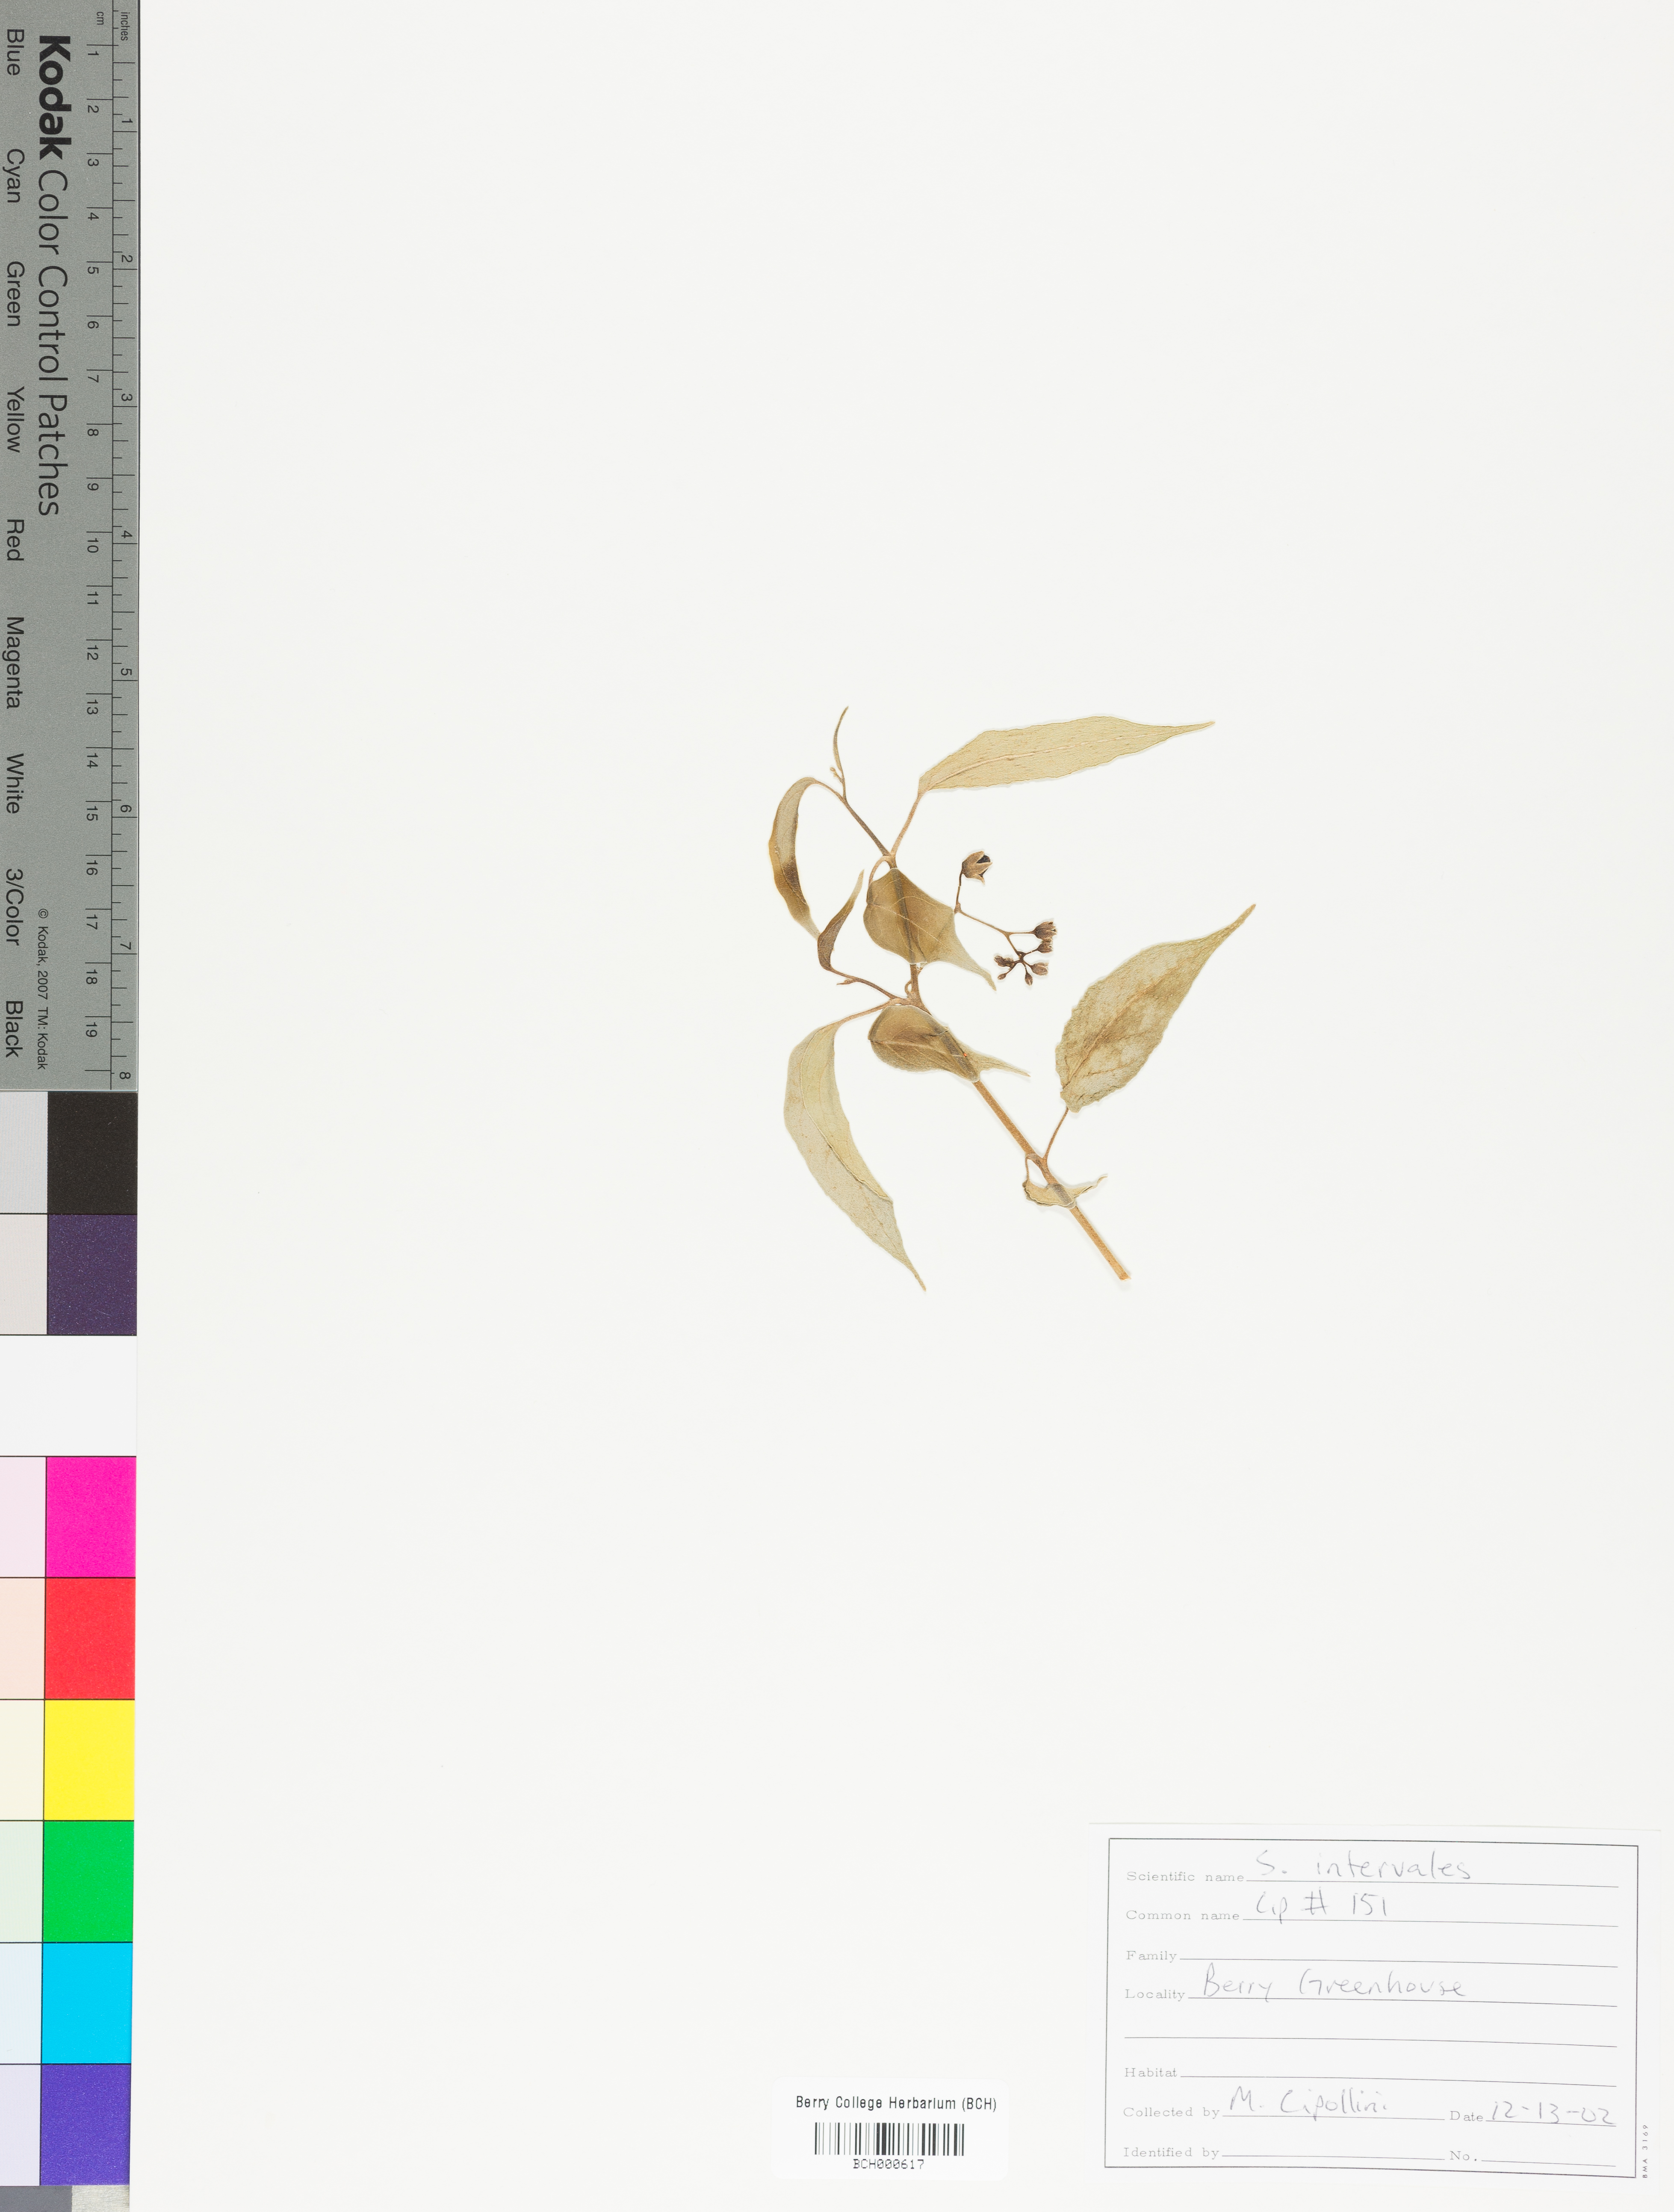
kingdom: Plantae
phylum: Tracheophyta
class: Magnoliopsida
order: Solanales
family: Solanaceae
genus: Solanum
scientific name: Solanum
